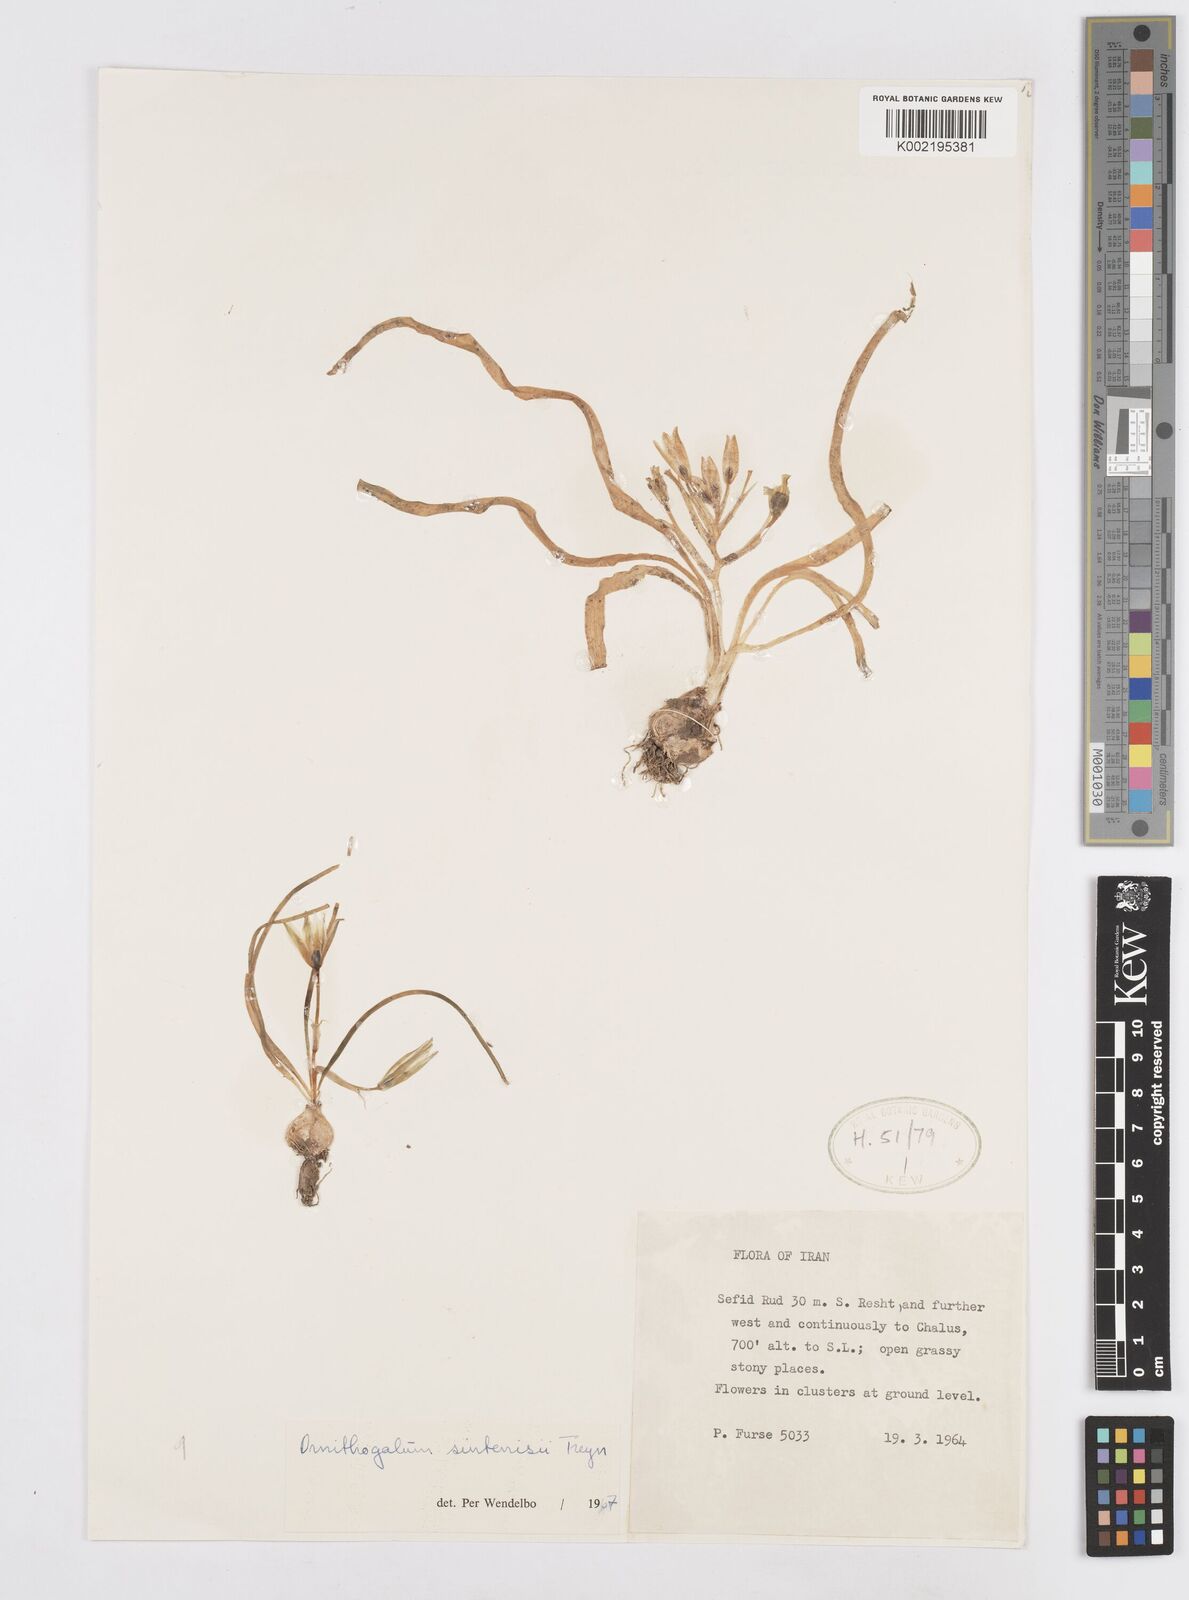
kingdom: Plantae
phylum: Tracheophyta
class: Liliopsida
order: Asparagales
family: Asparagaceae
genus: Ornithogalum
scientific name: Ornithogalum sintenisii
